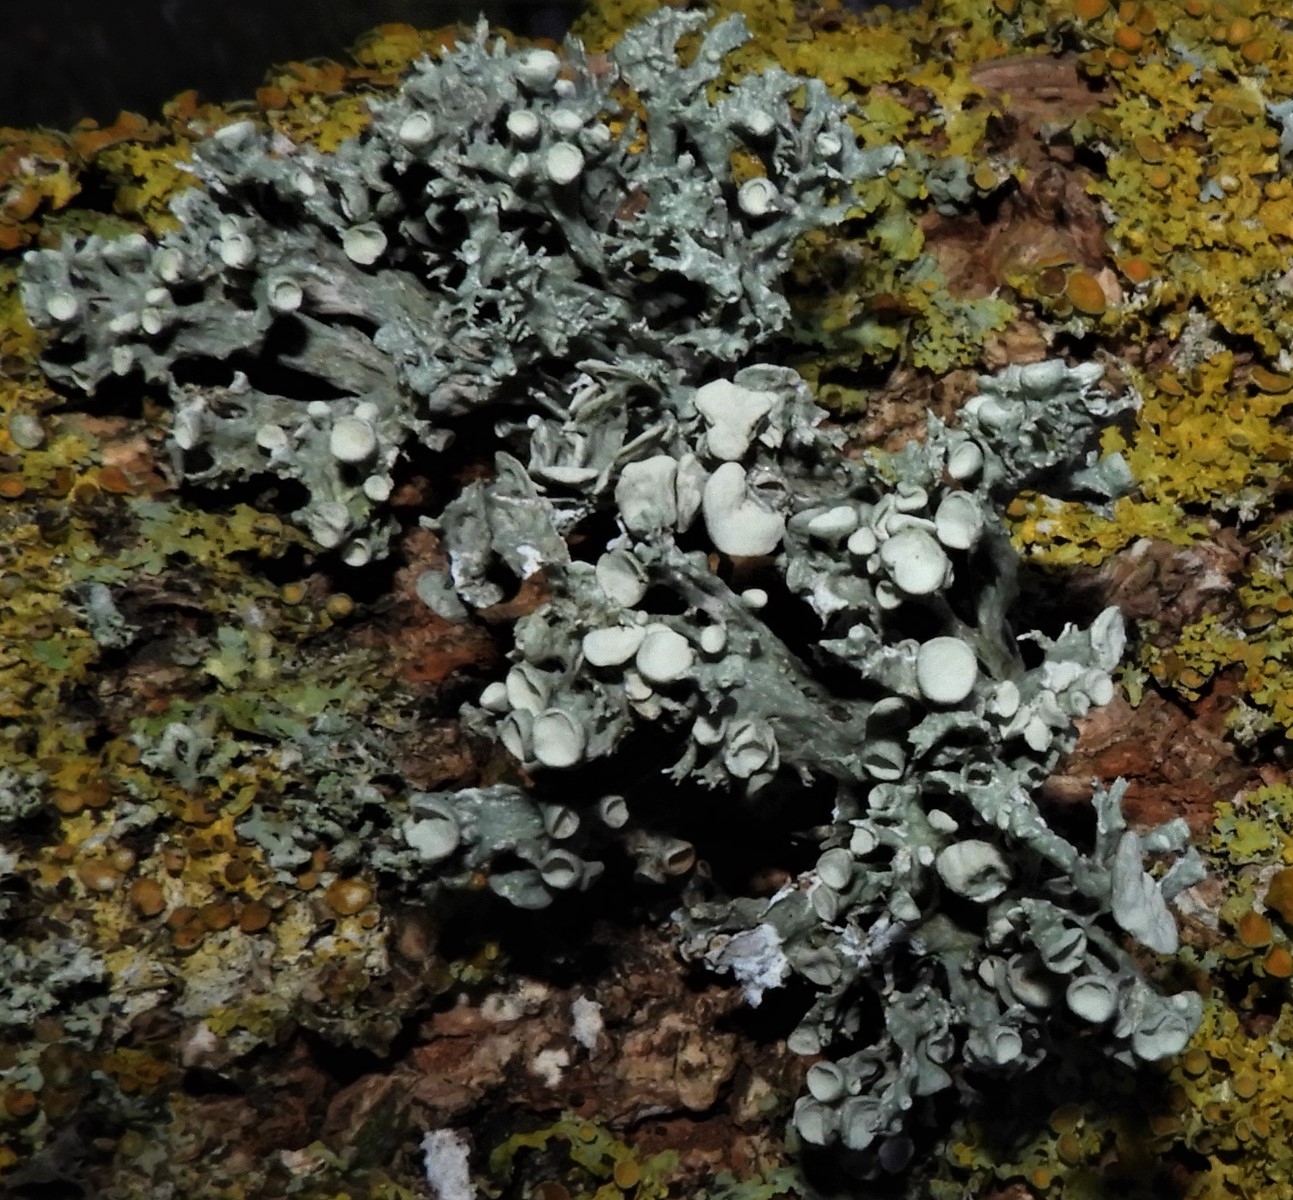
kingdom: Fungi
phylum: Ascomycota
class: Lecanoromycetes
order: Lecanorales
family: Ramalinaceae
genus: Ramalina
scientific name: Ramalina fastigiata
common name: tue-grenlav
